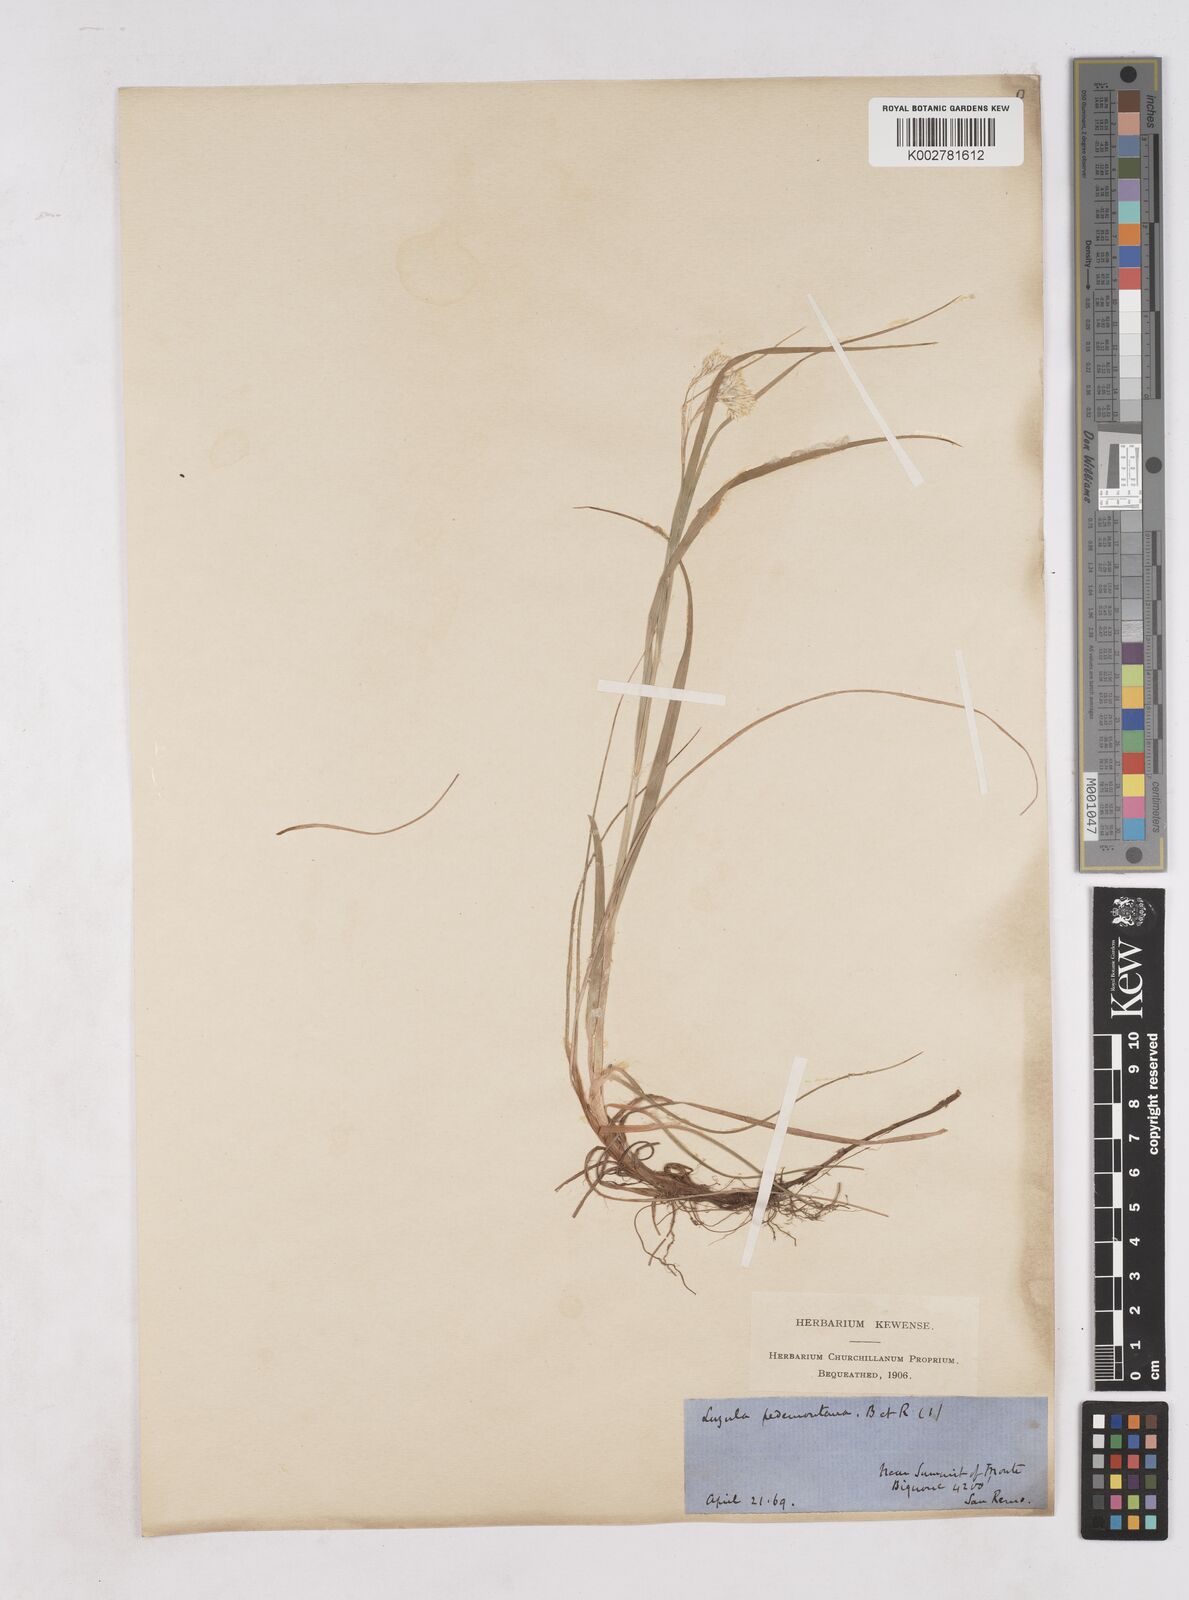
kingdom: Plantae
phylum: Tracheophyta
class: Liliopsida
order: Poales
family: Juncaceae
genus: Luzula
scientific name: Luzula pedemontana
